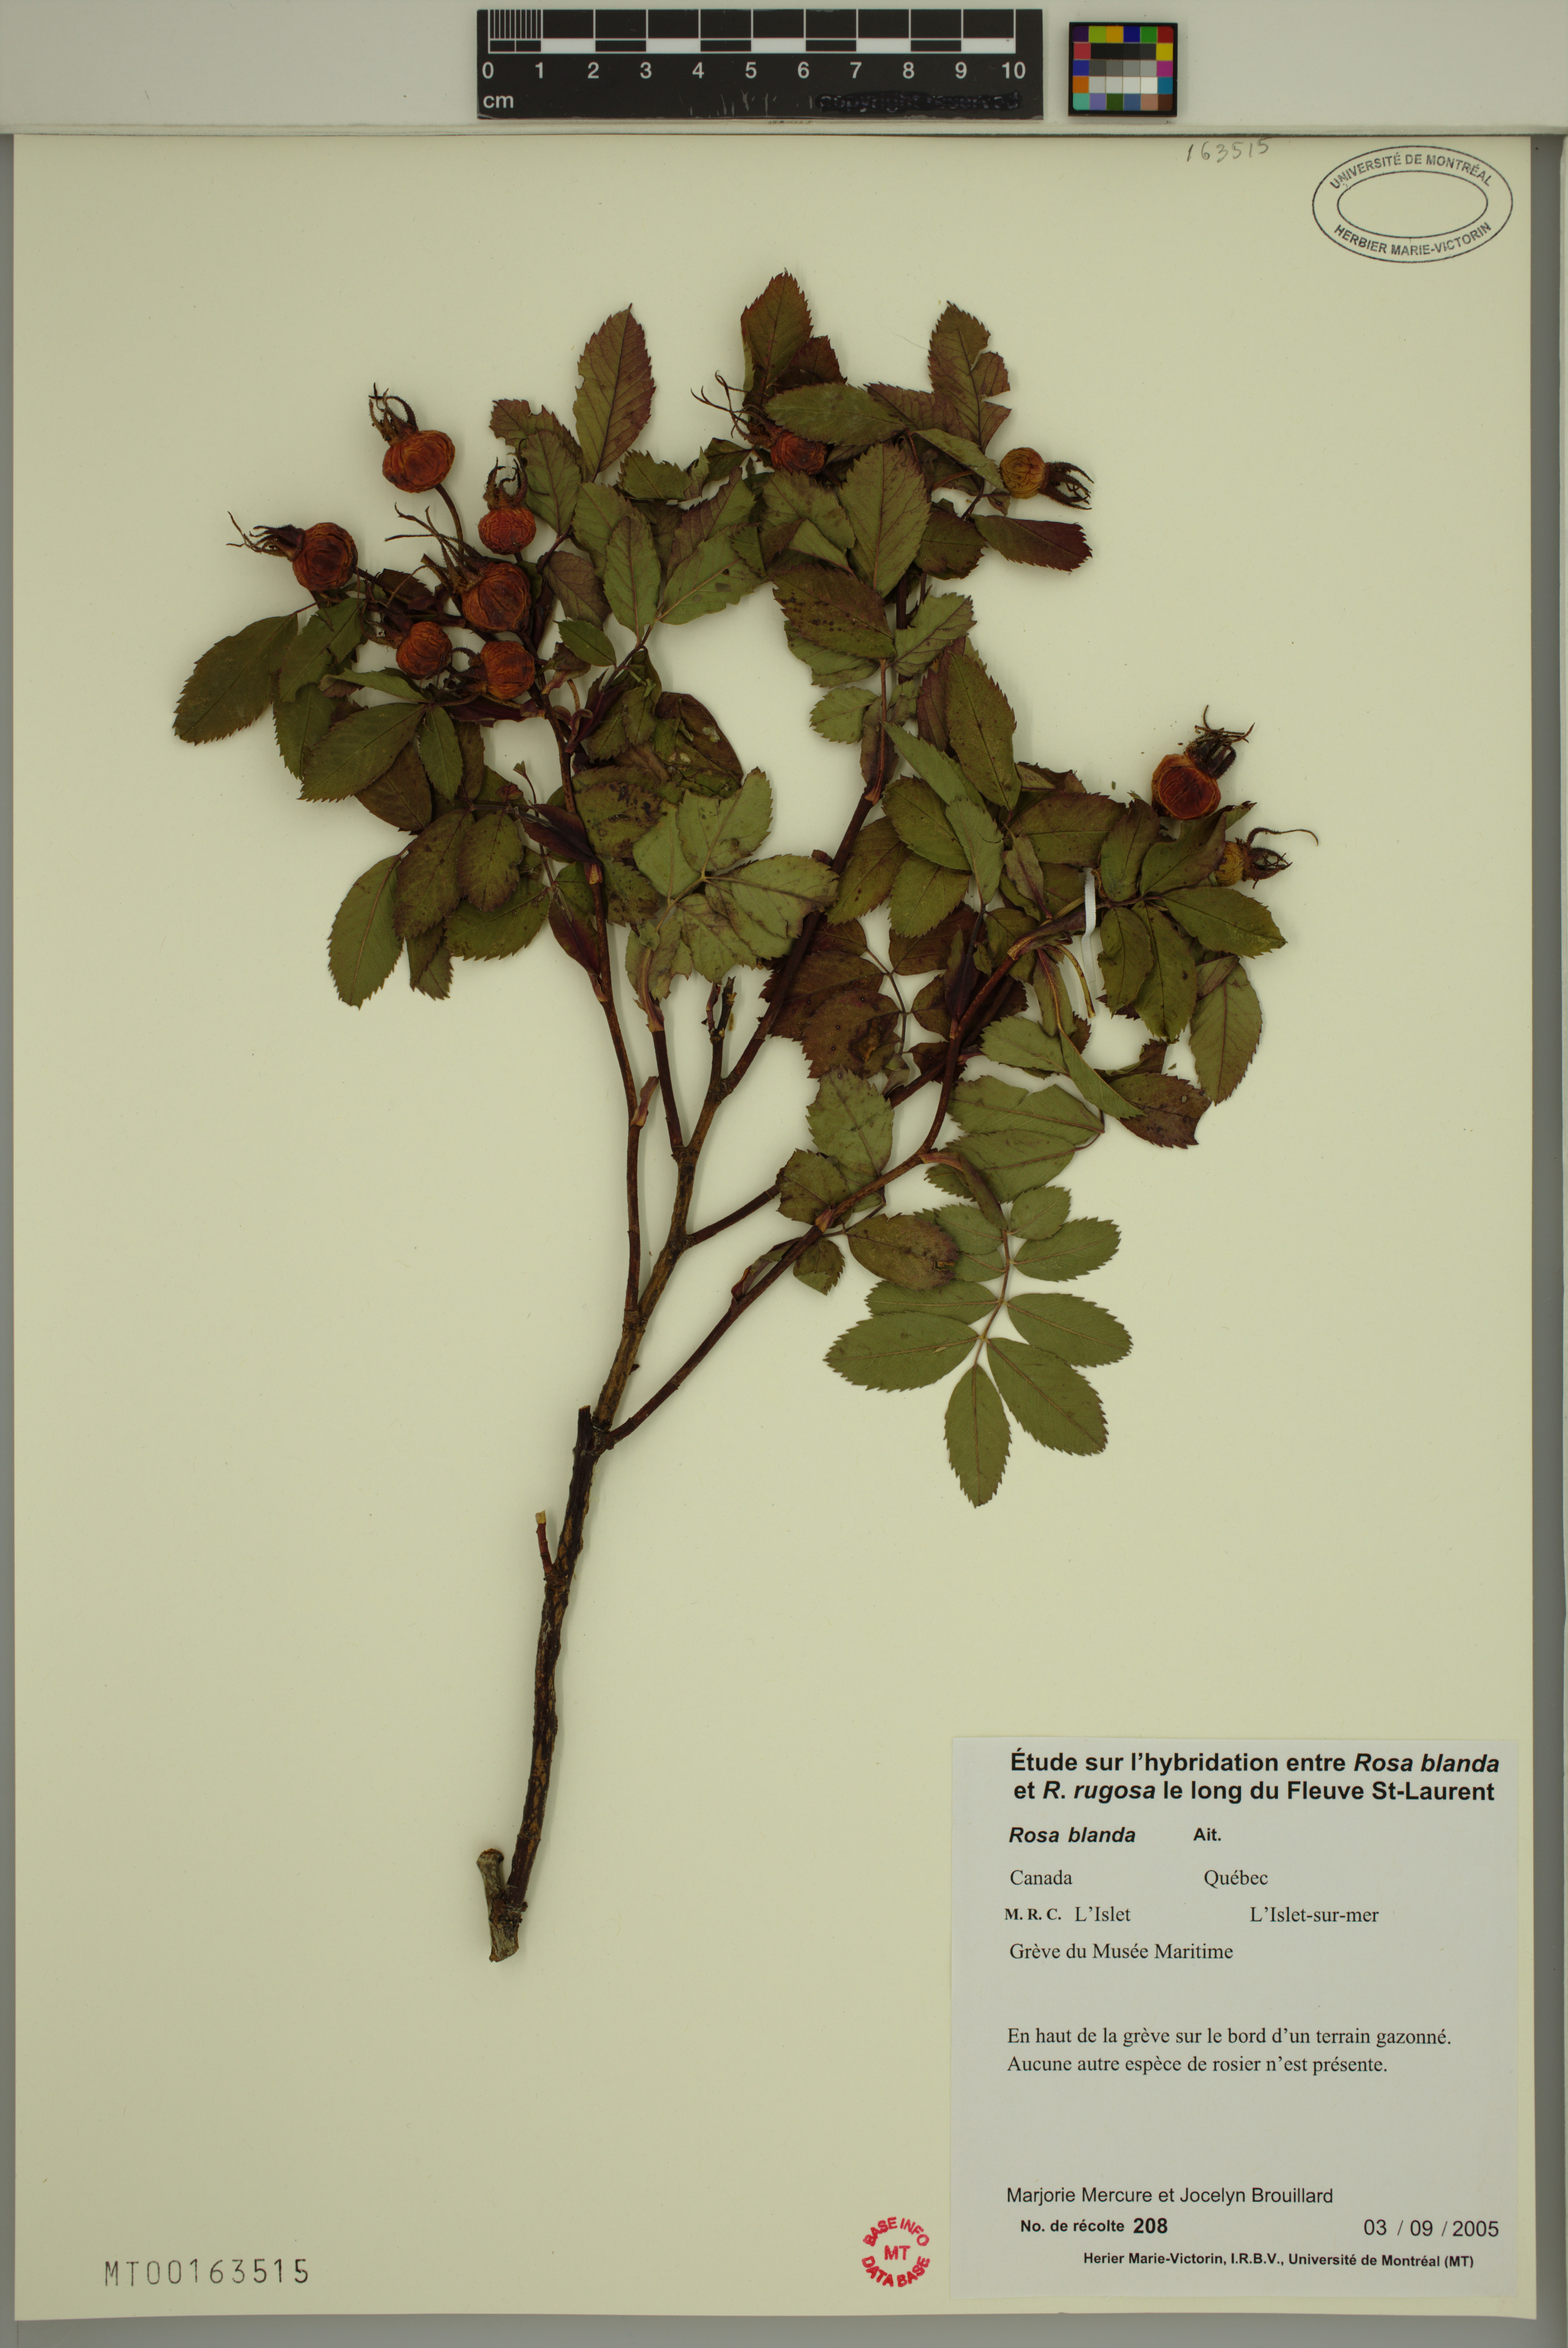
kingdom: Plantae
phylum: Tracheophyta
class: Magnoliopsida
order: Rosales
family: Rosaceae
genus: Rosa
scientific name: Rosa blanda
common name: Smooth rose
